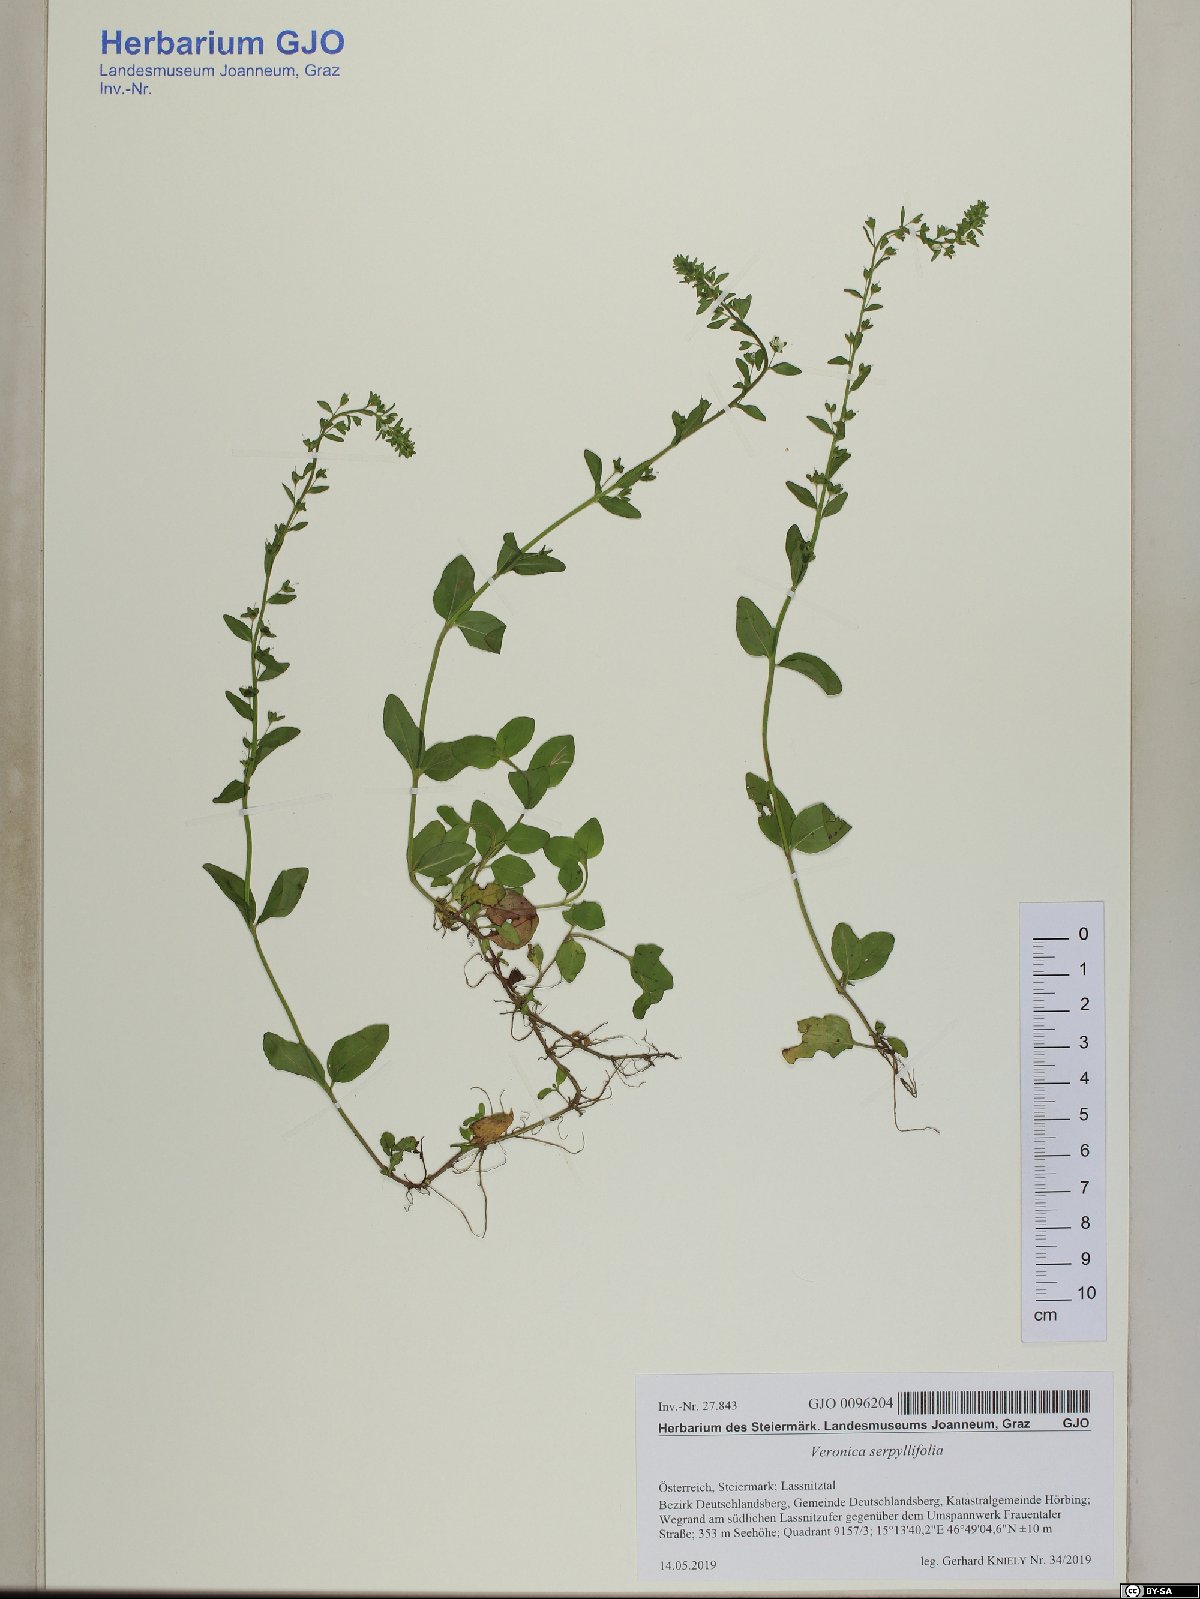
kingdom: Plantae
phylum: Tracheophyta
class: Magnoliopsida
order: Lamiales
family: Plantaginaceae
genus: Veronica
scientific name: Veronica serpyllifolia
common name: Thyme-leaved speedwell
